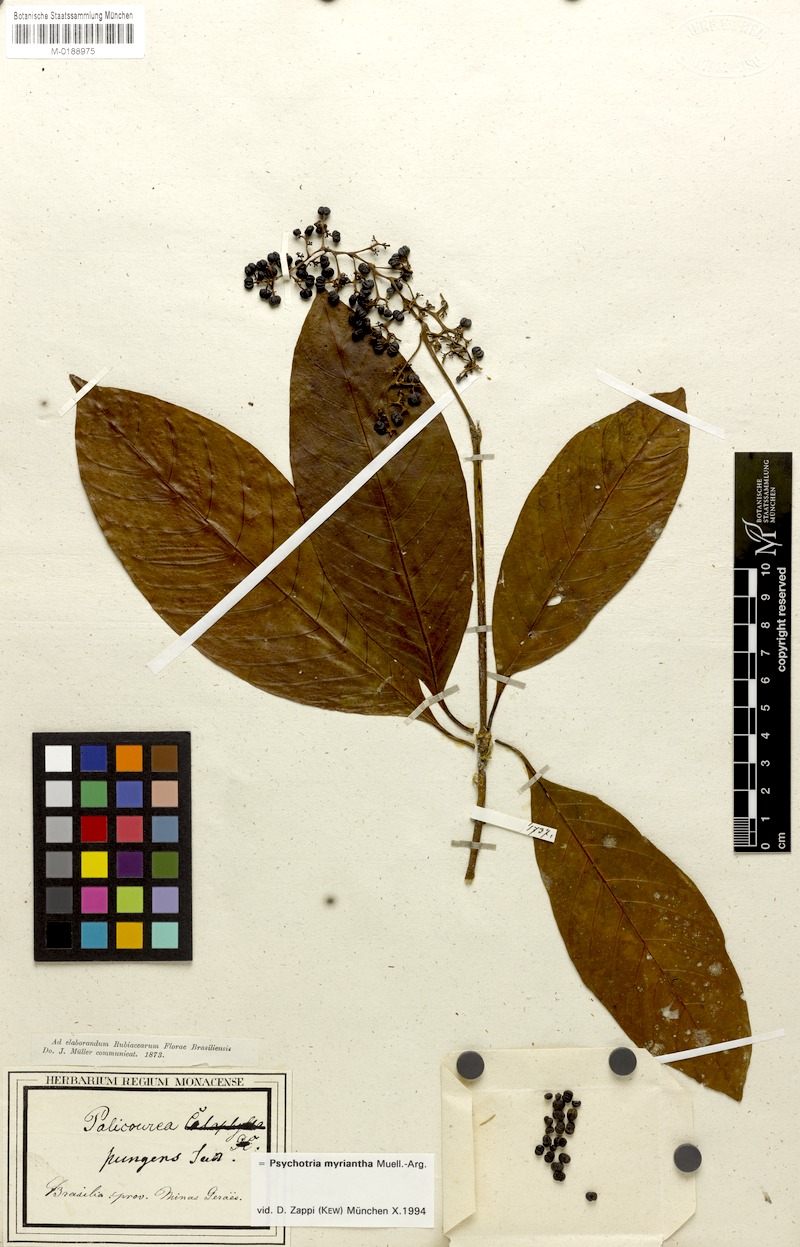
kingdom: Plantae
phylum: Tracheophyta
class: Magnoliopsida
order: Gentianales
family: Rubiaceae
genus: Palicourea
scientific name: Palicourea mamillaris
